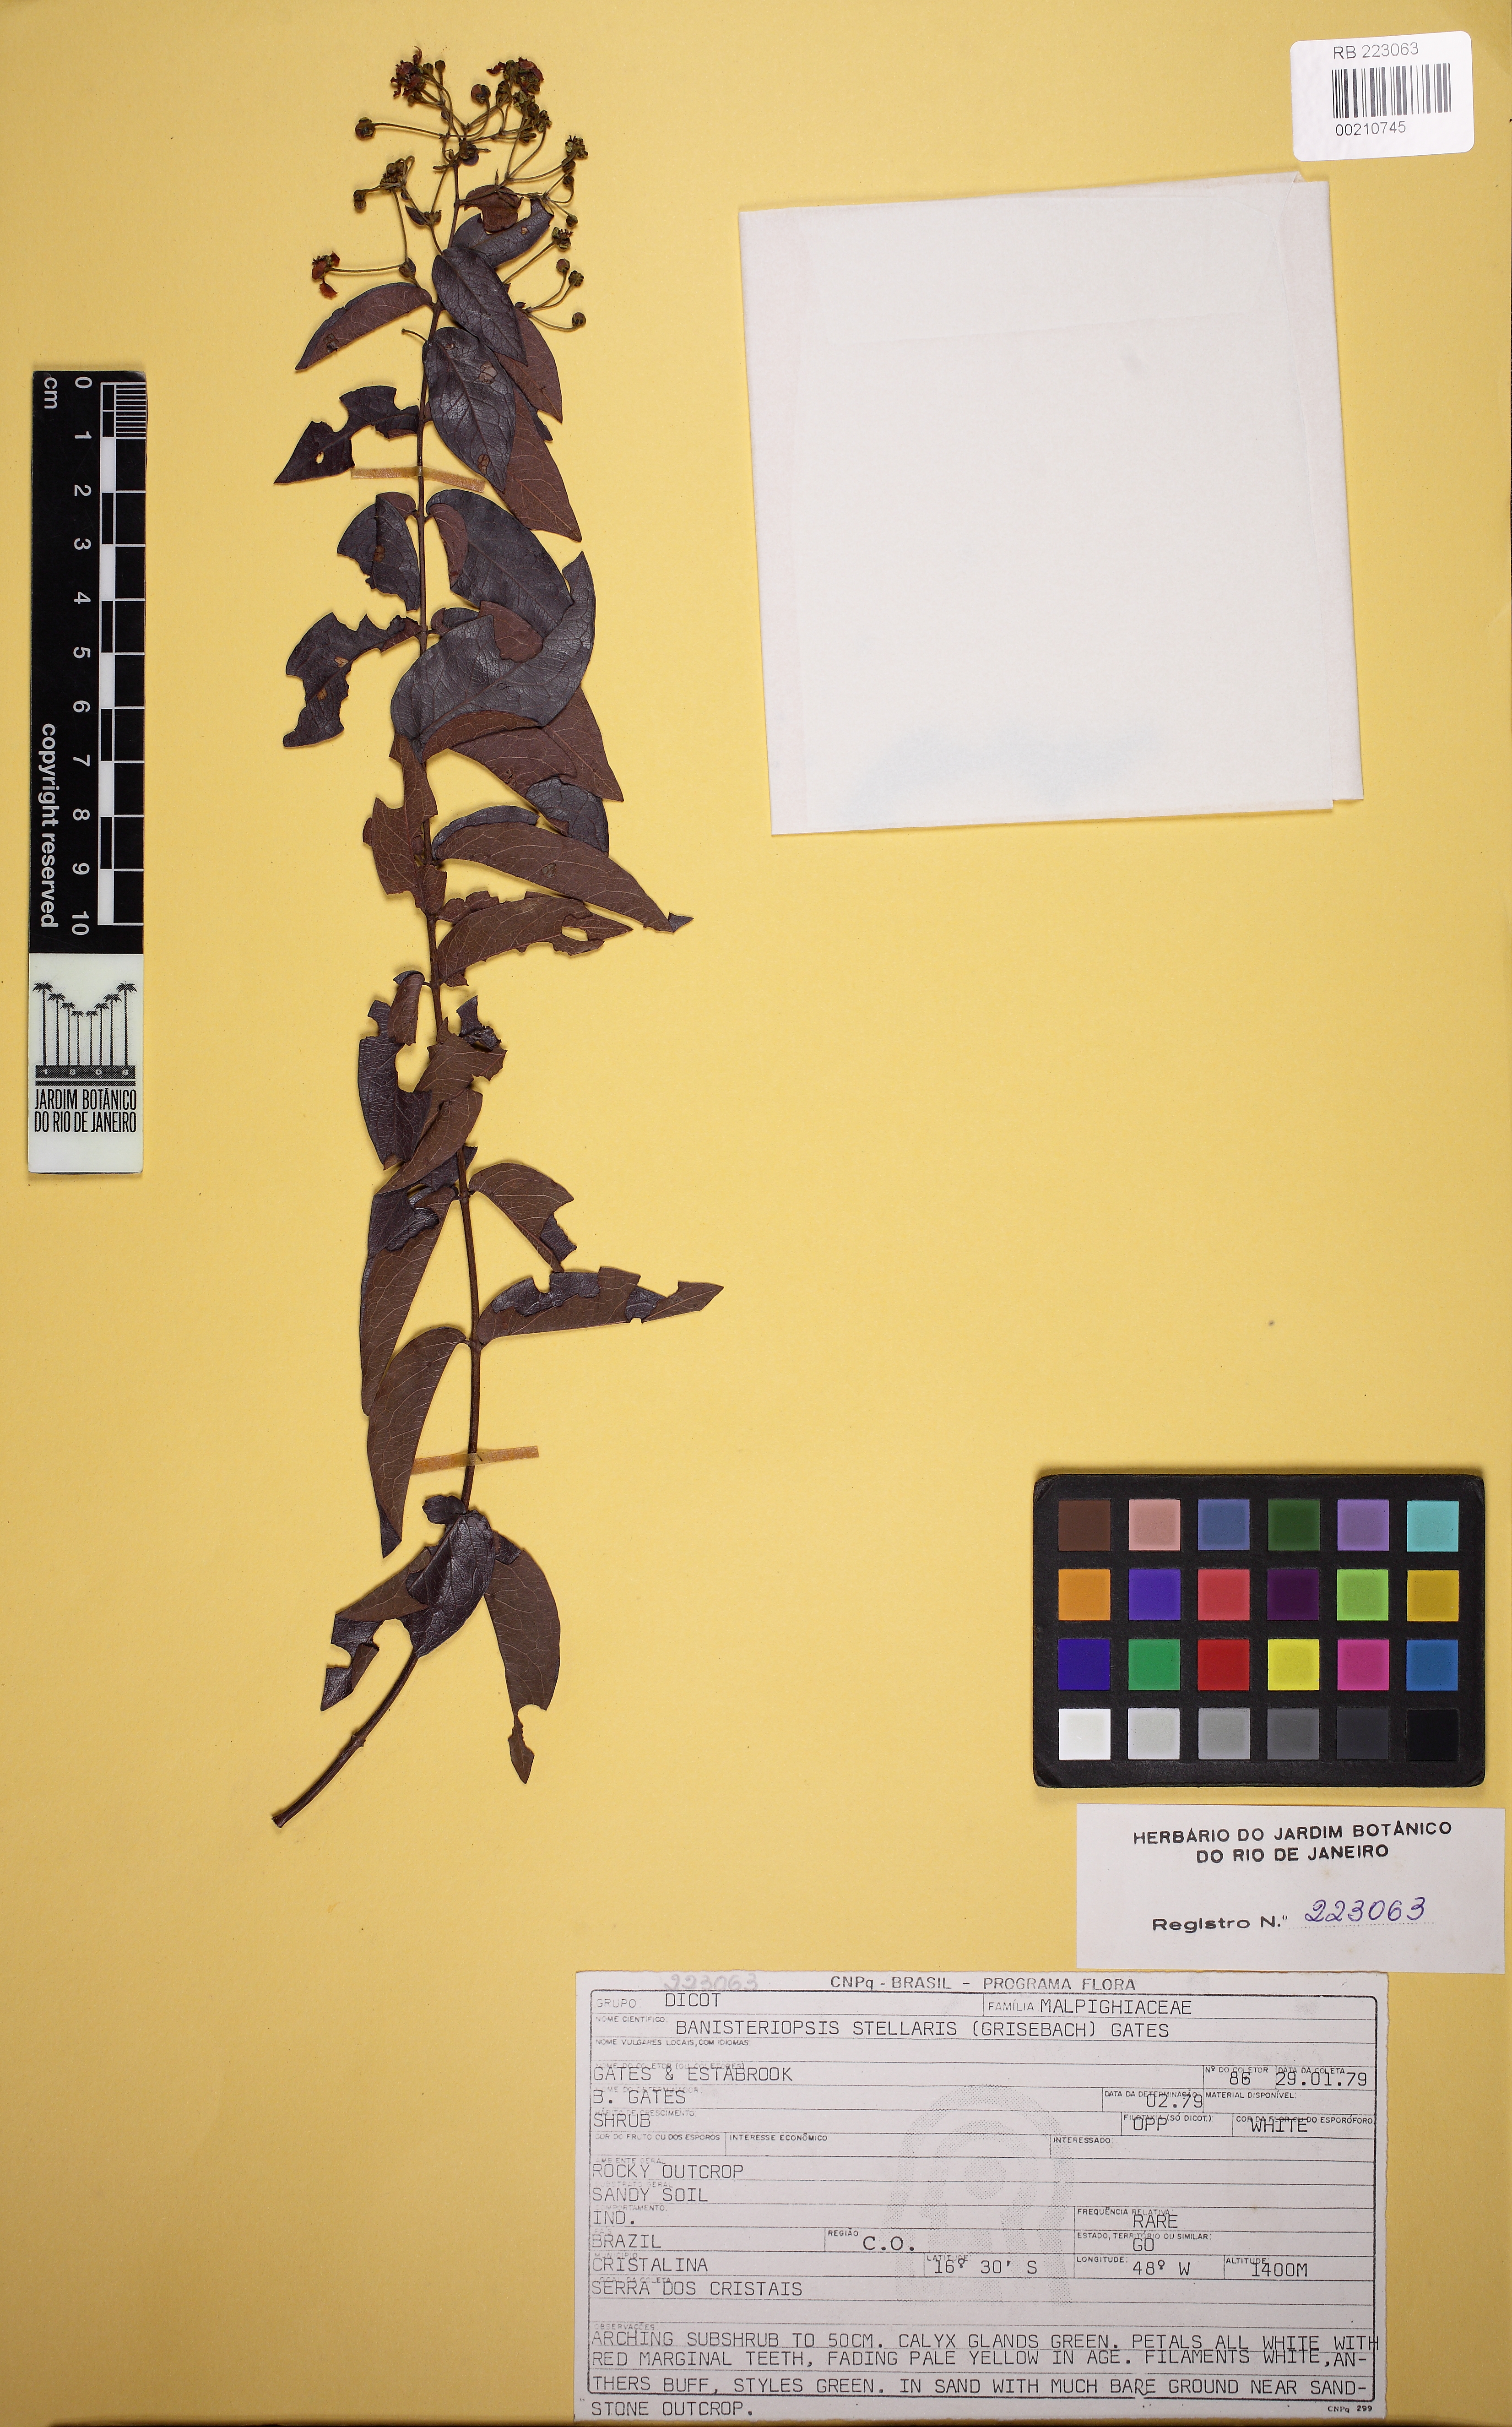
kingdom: Plantae
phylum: Tracheophyta
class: Magnoliopsida
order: Malpighiales
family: Malpighiaceae
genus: Banisteriopsis
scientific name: Banisteriopsis stellaris
